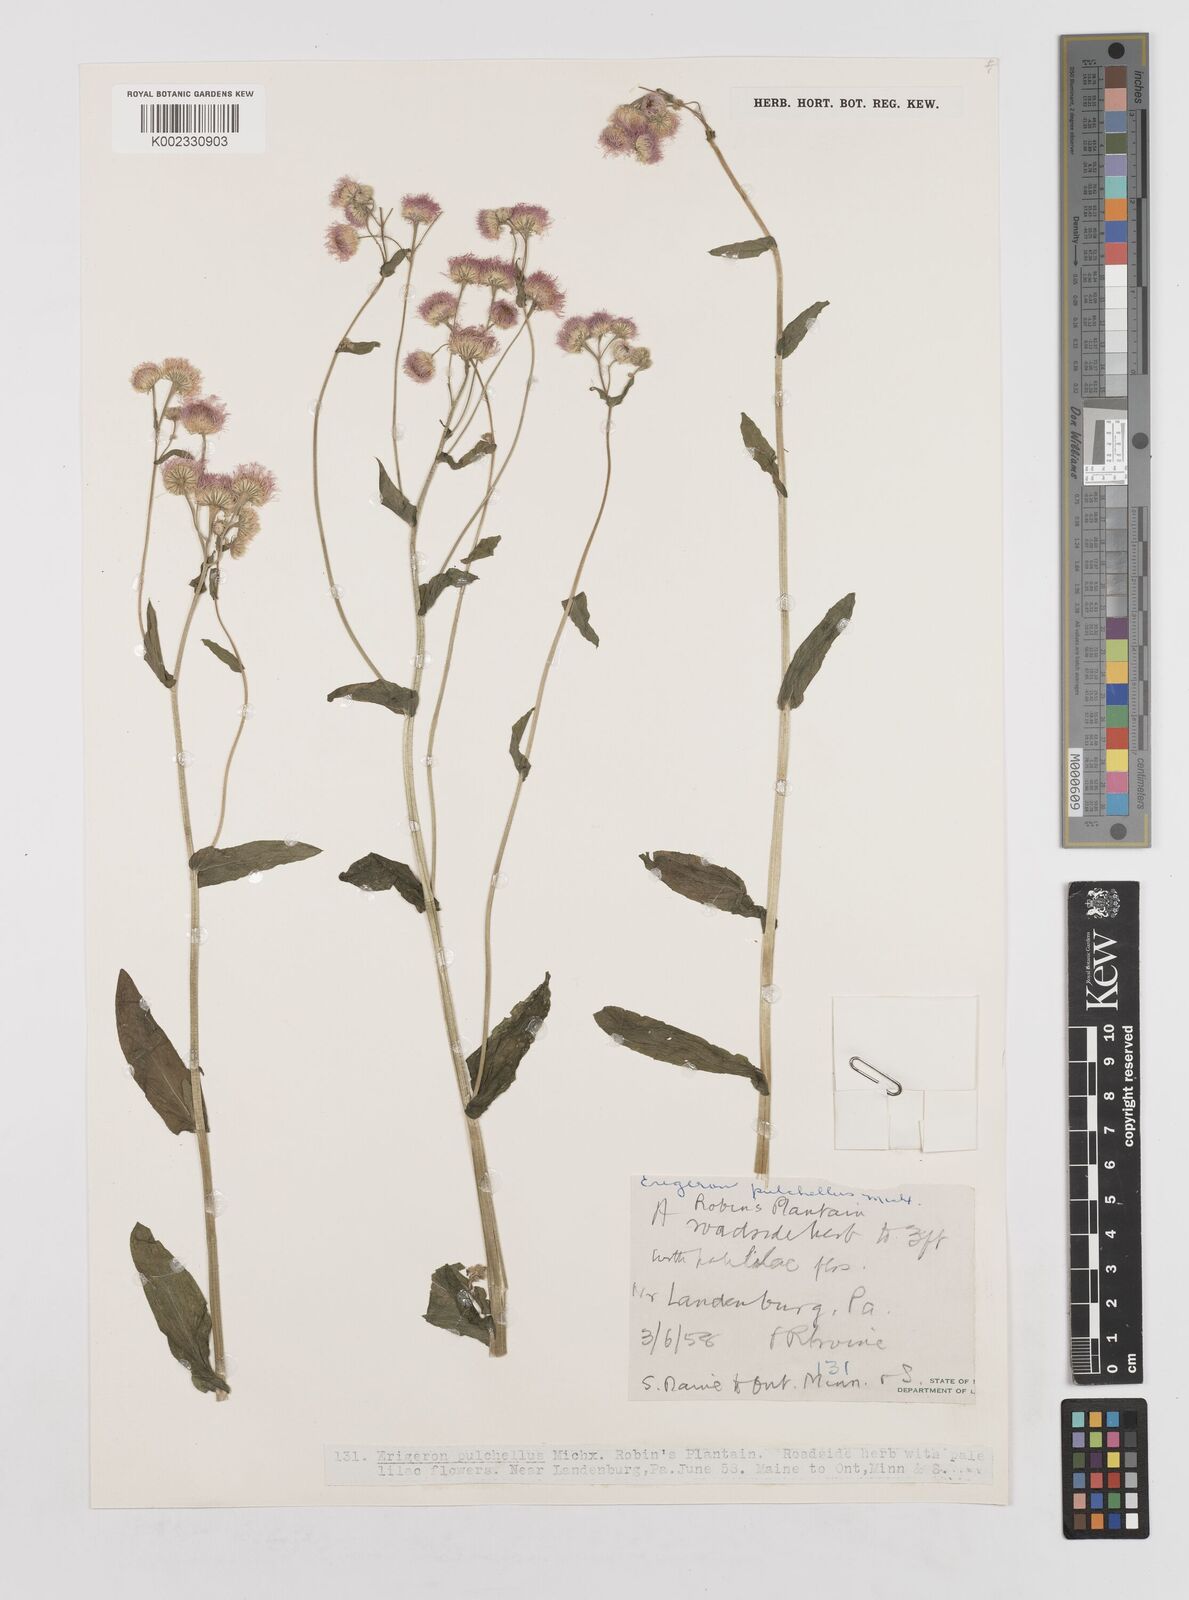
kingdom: Plantae
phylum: Tracheophyta
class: Magnoliopsida
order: Asterales
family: Asteraceae
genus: Erigeron
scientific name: Erigeron pulchellus
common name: Hairy fleabane
